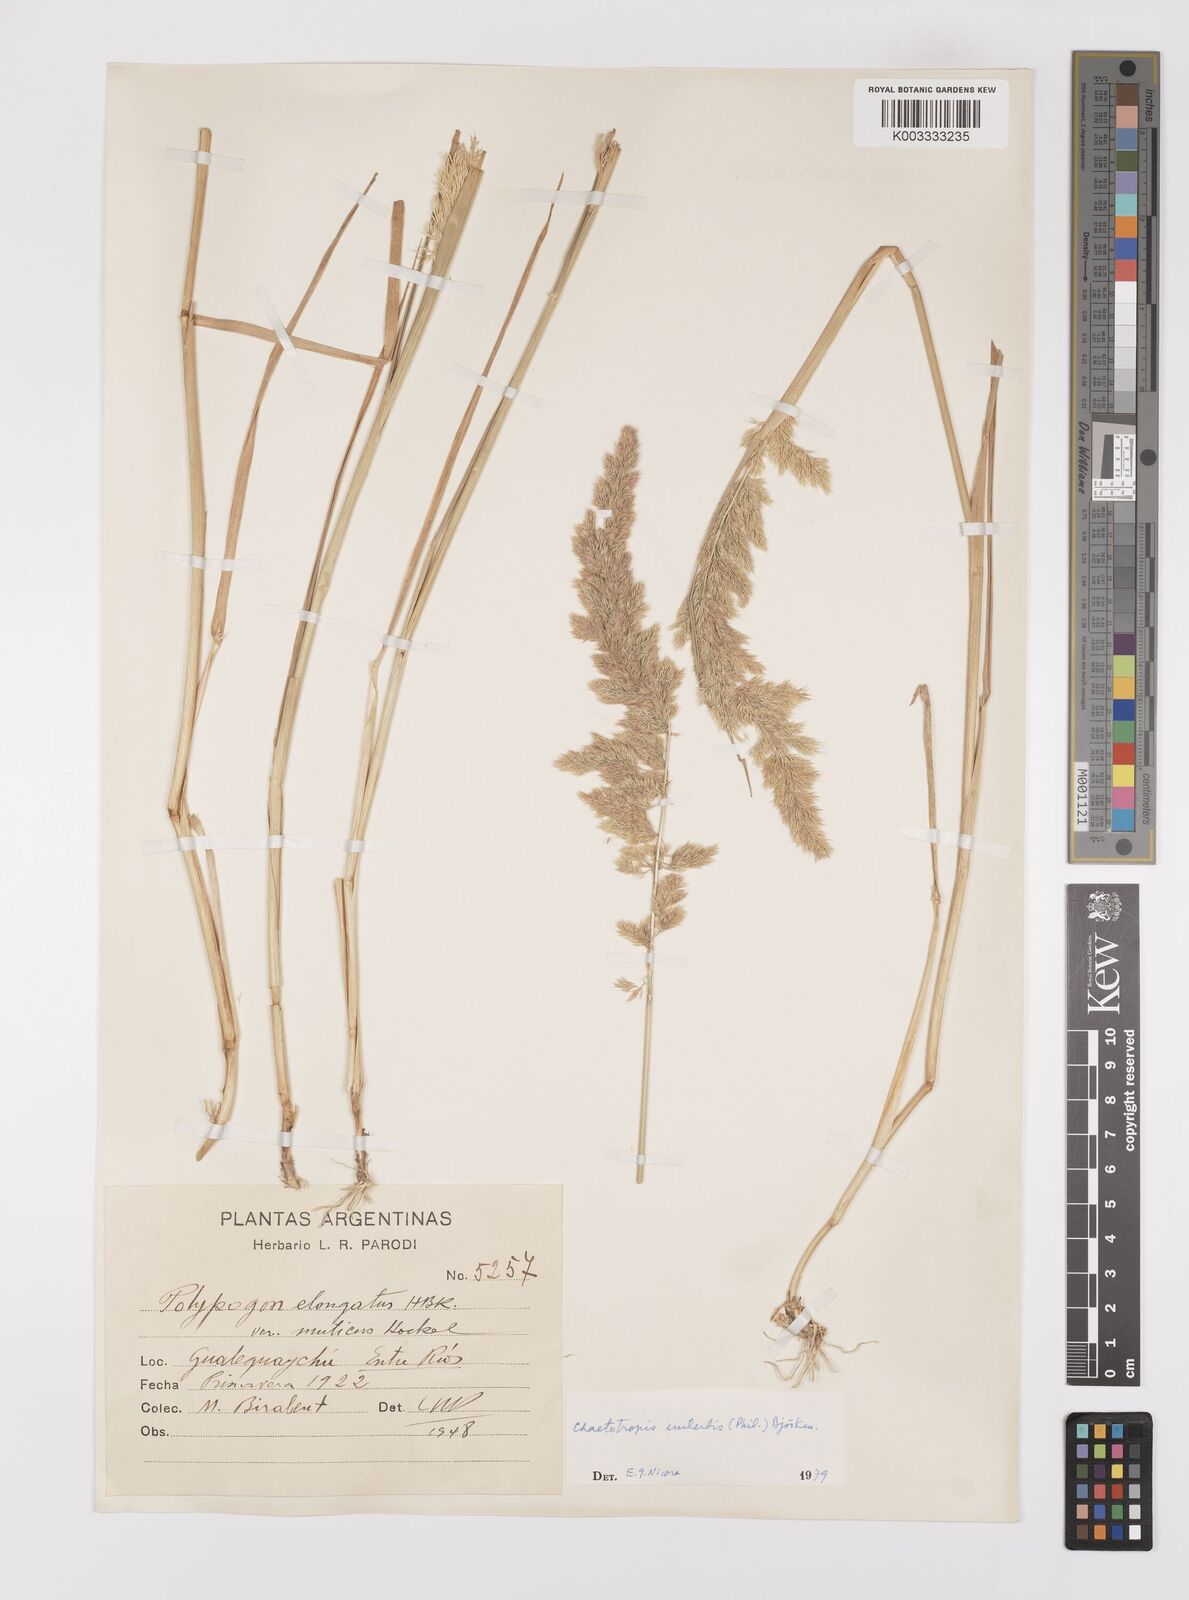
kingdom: Plantae
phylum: Tracheophyta
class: Liliopsida
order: Poales
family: Poaceae
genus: Polypogon
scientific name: Polypogon imberbis
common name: Beardless rabbitsfoot grass
